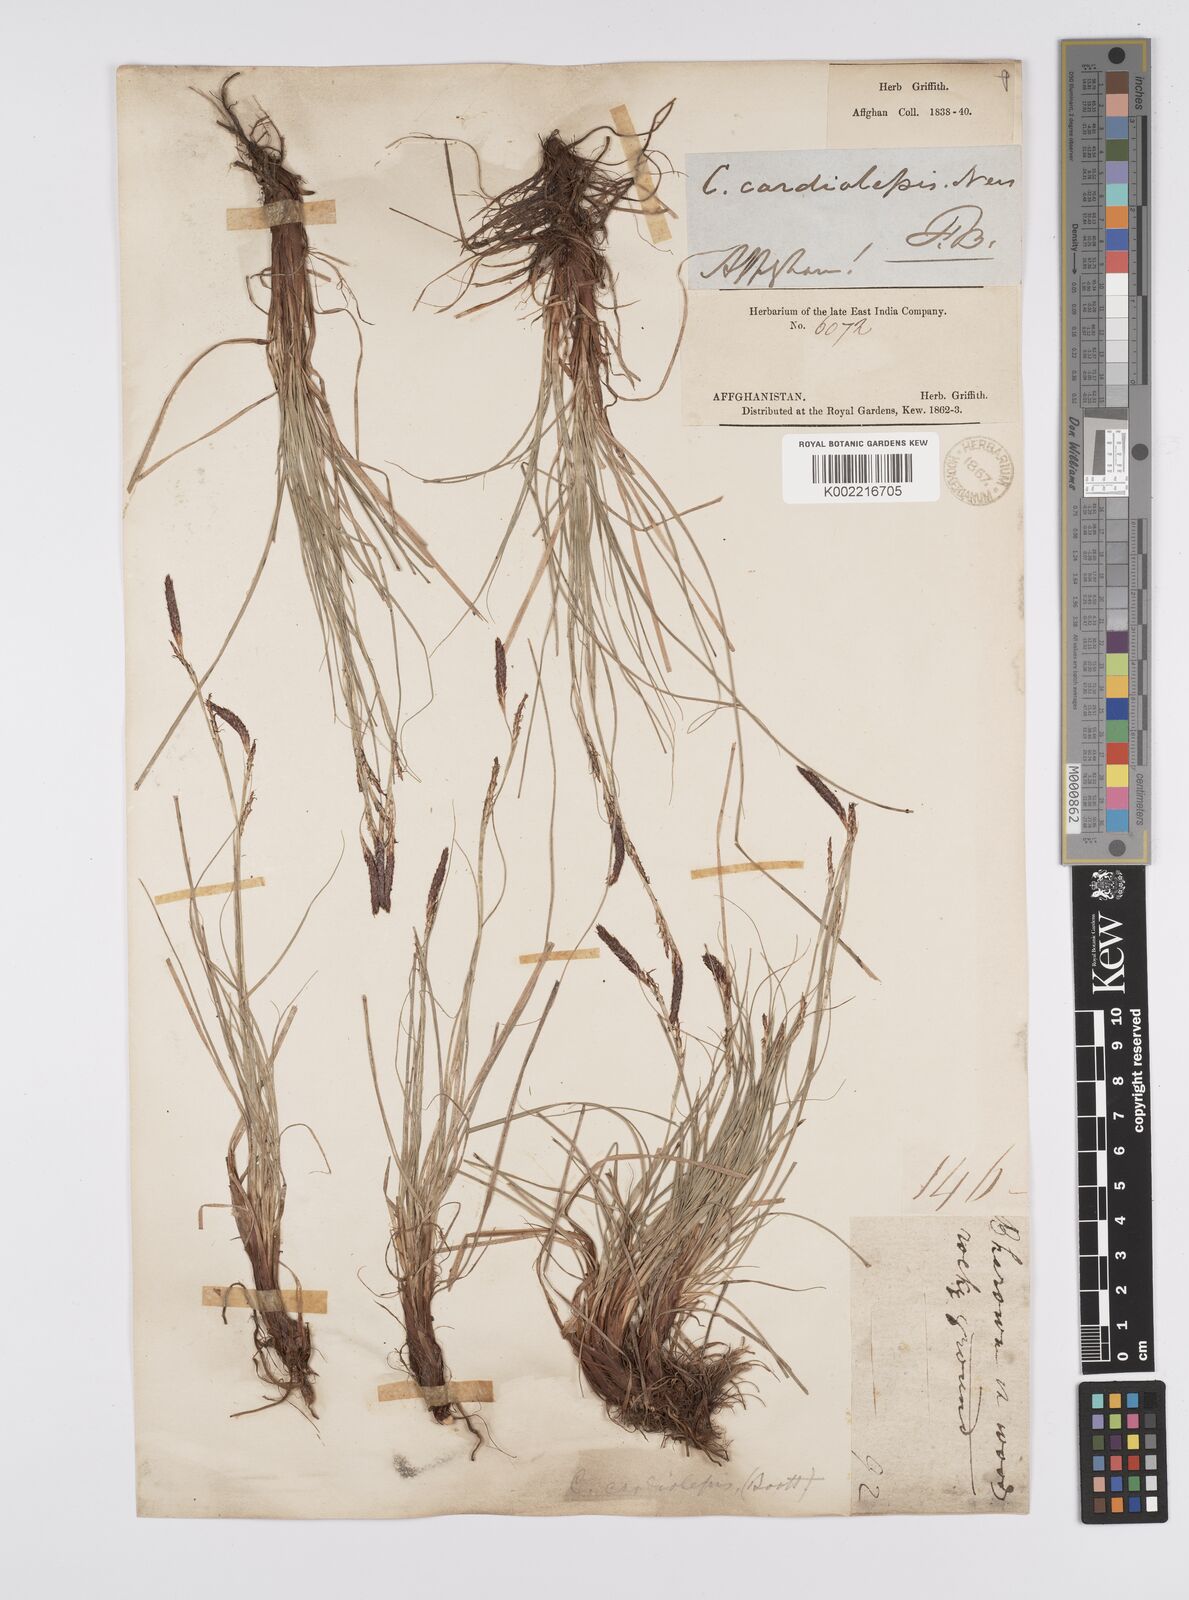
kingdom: Plantae
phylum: Tracheophyta
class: Liliopsida
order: Poales
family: Cyperaceae
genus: Carex
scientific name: Carex cardiolepis
